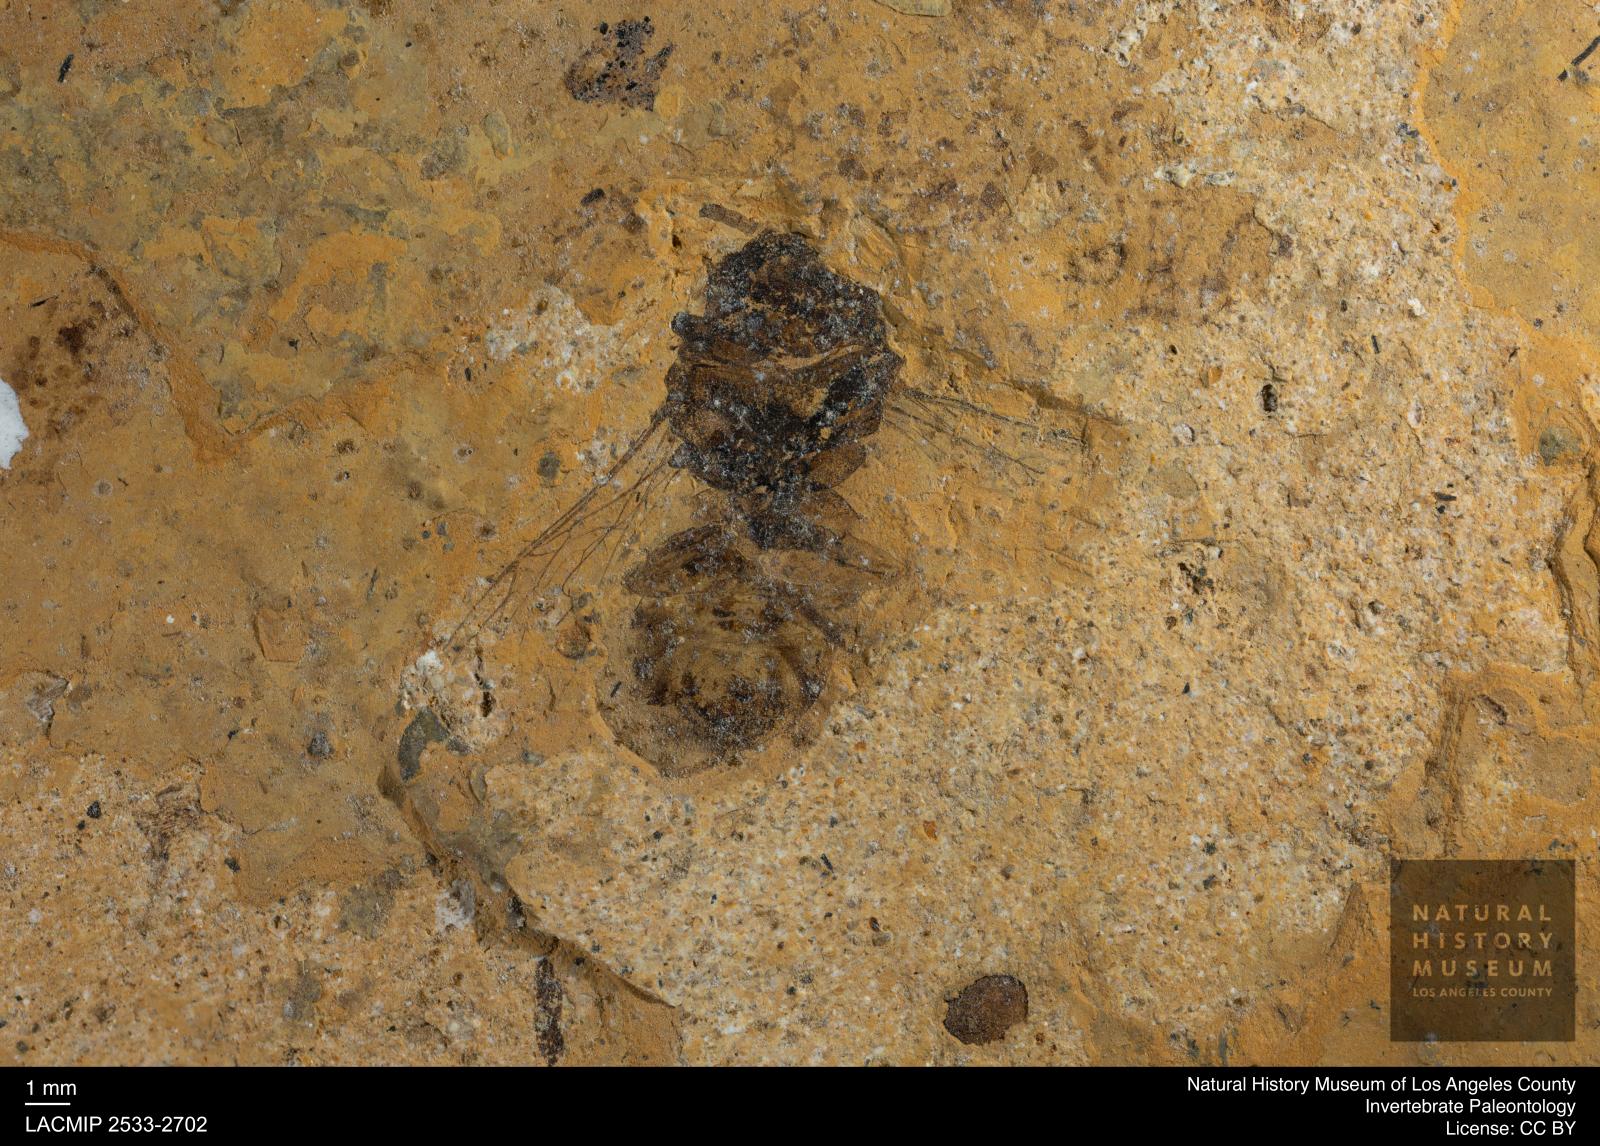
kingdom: Animalia
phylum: Arthropoda
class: Insecta
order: Hymenoptera
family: Apidae
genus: Apis
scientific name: Apis henshawi
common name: Henshaw's honey bee
